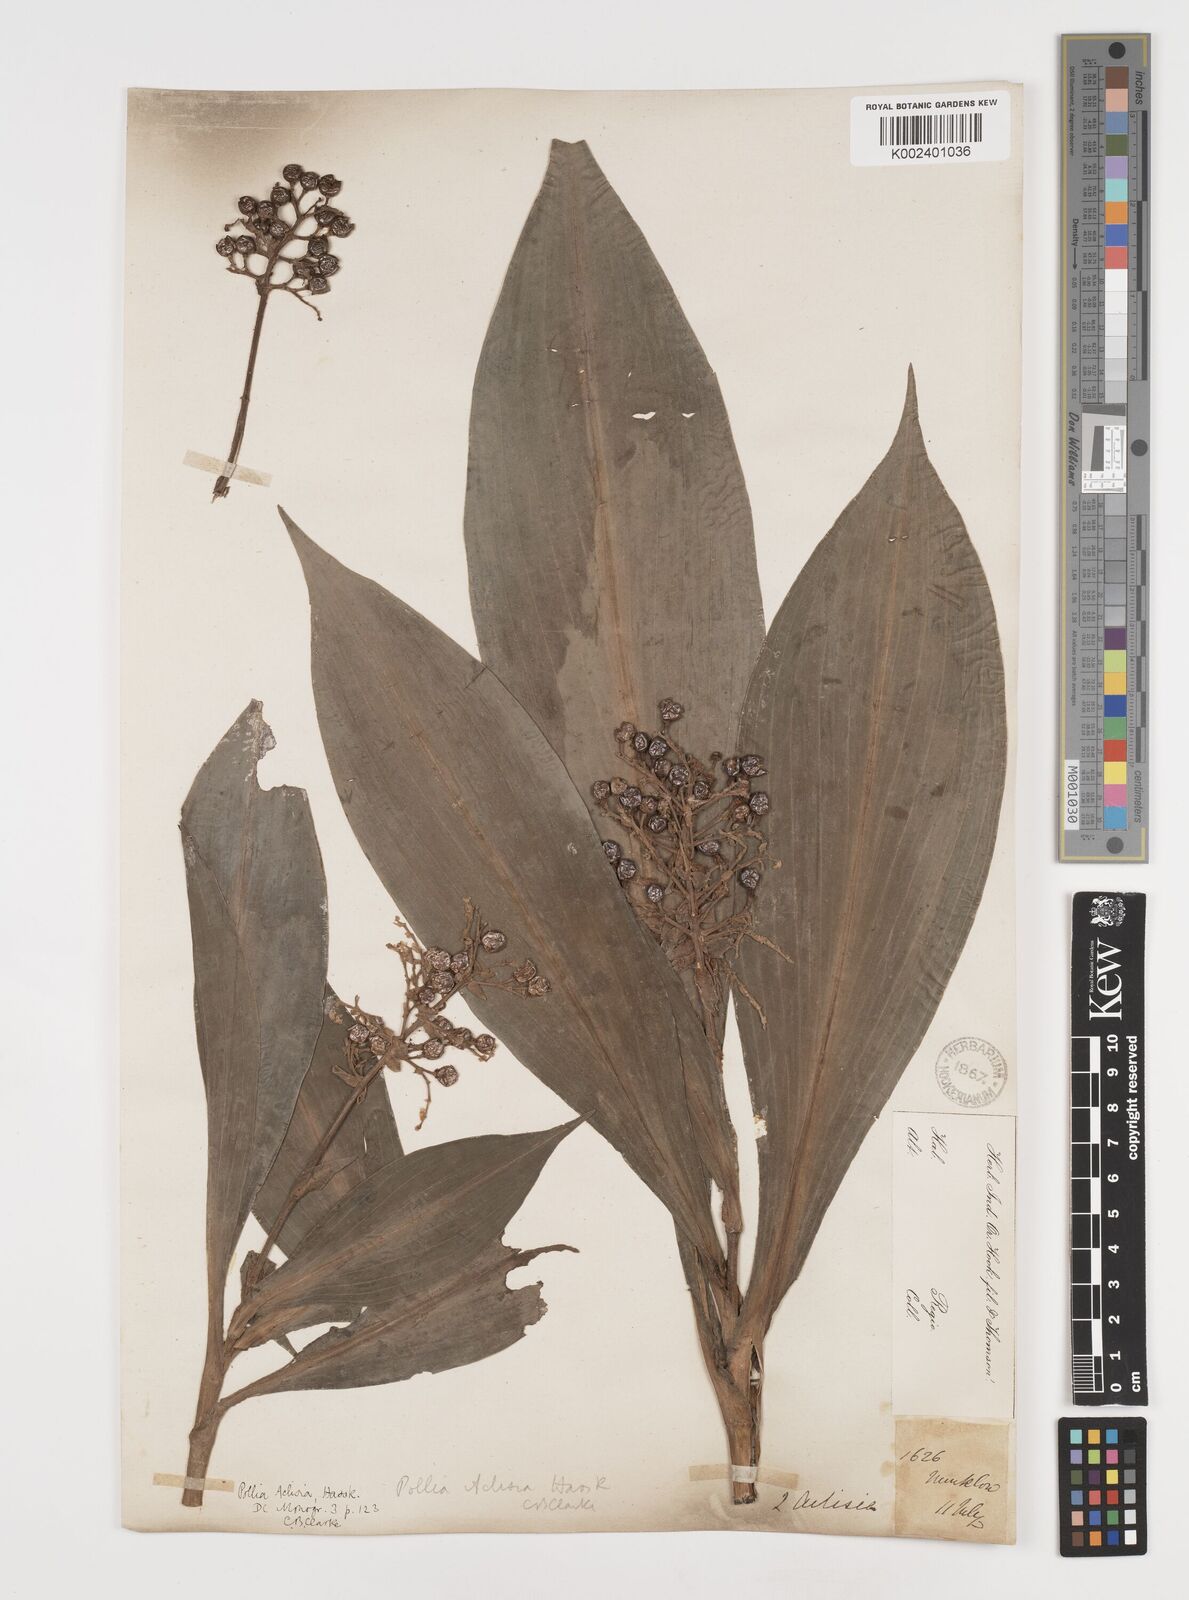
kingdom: Plantae
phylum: Tracheophyta
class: Liliopsida
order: Commelinales
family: Commelinaceae
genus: Pollia
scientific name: Pollia hasskarlii
